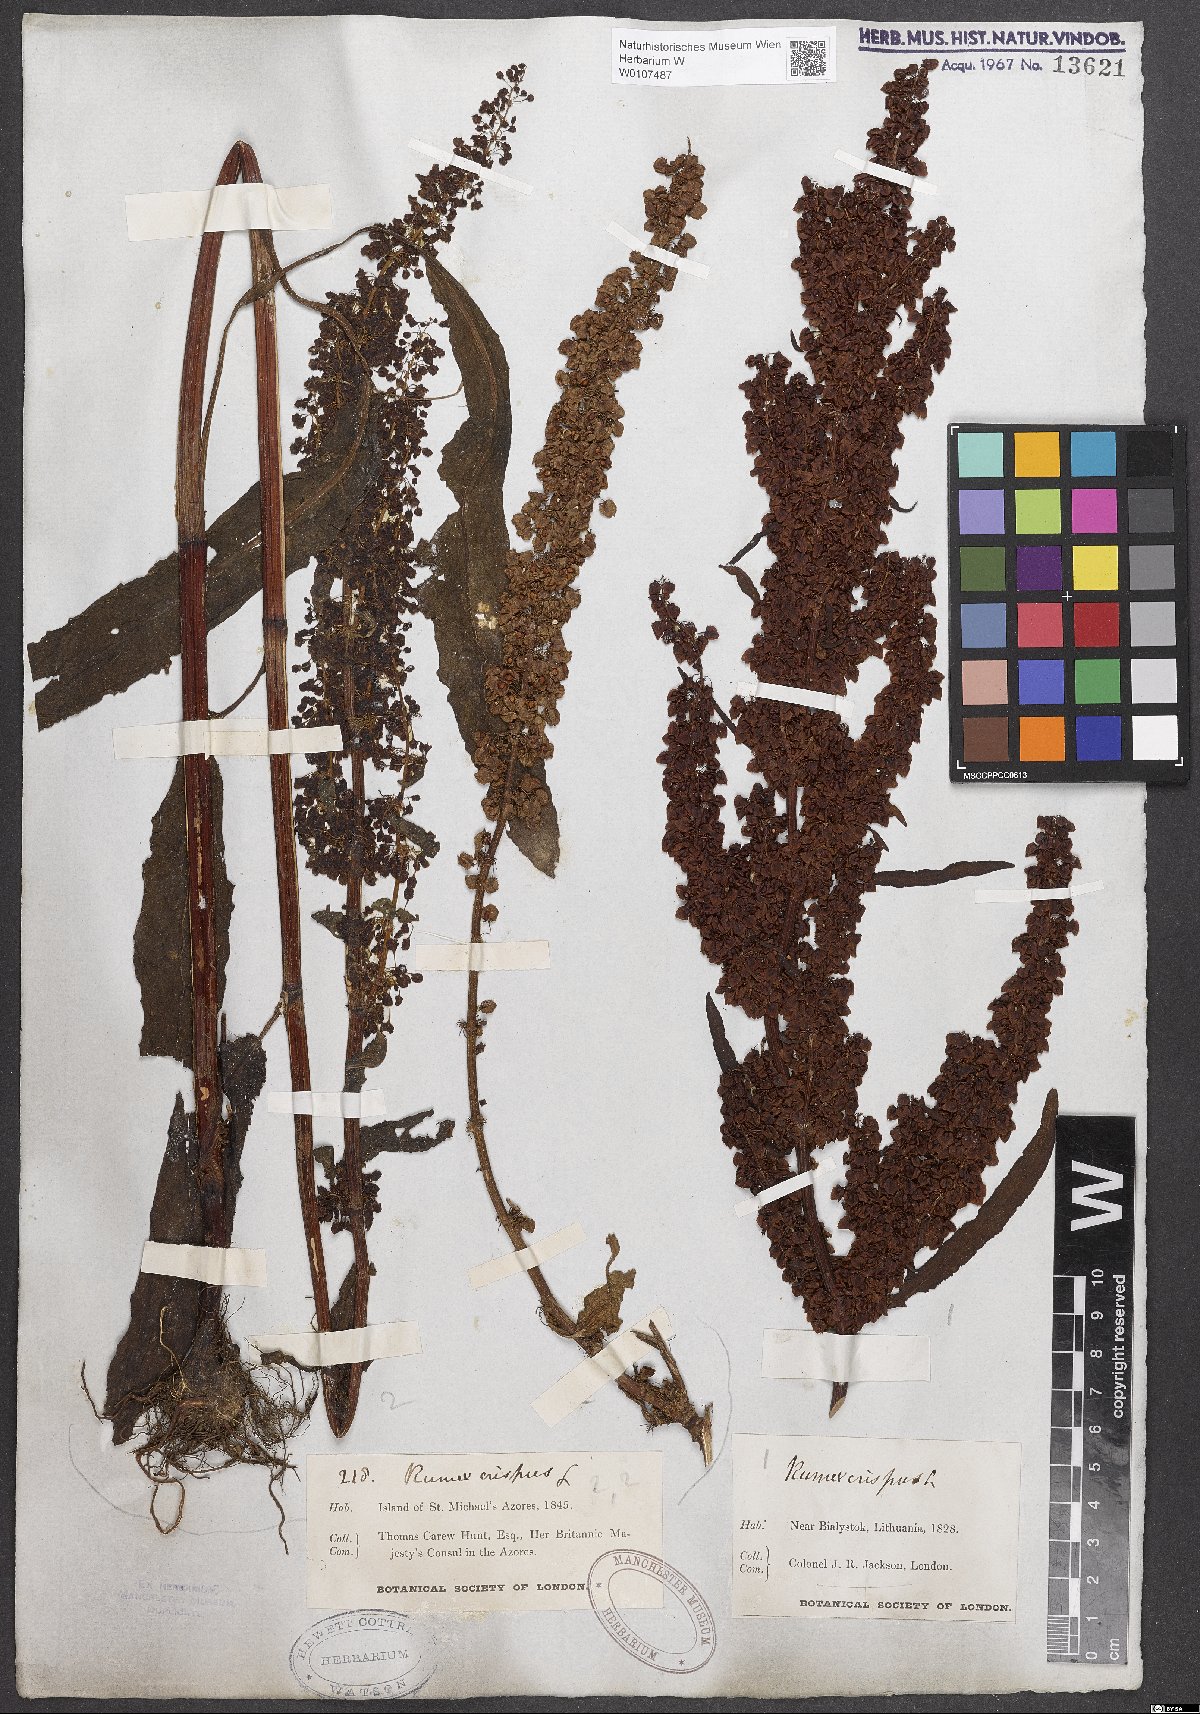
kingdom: Plantae
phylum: Tracheophyta
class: Magnoliopsida
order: Caryophyllales
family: Polygonaceae
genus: Rumex
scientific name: Rumex crispus
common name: Curled dock
